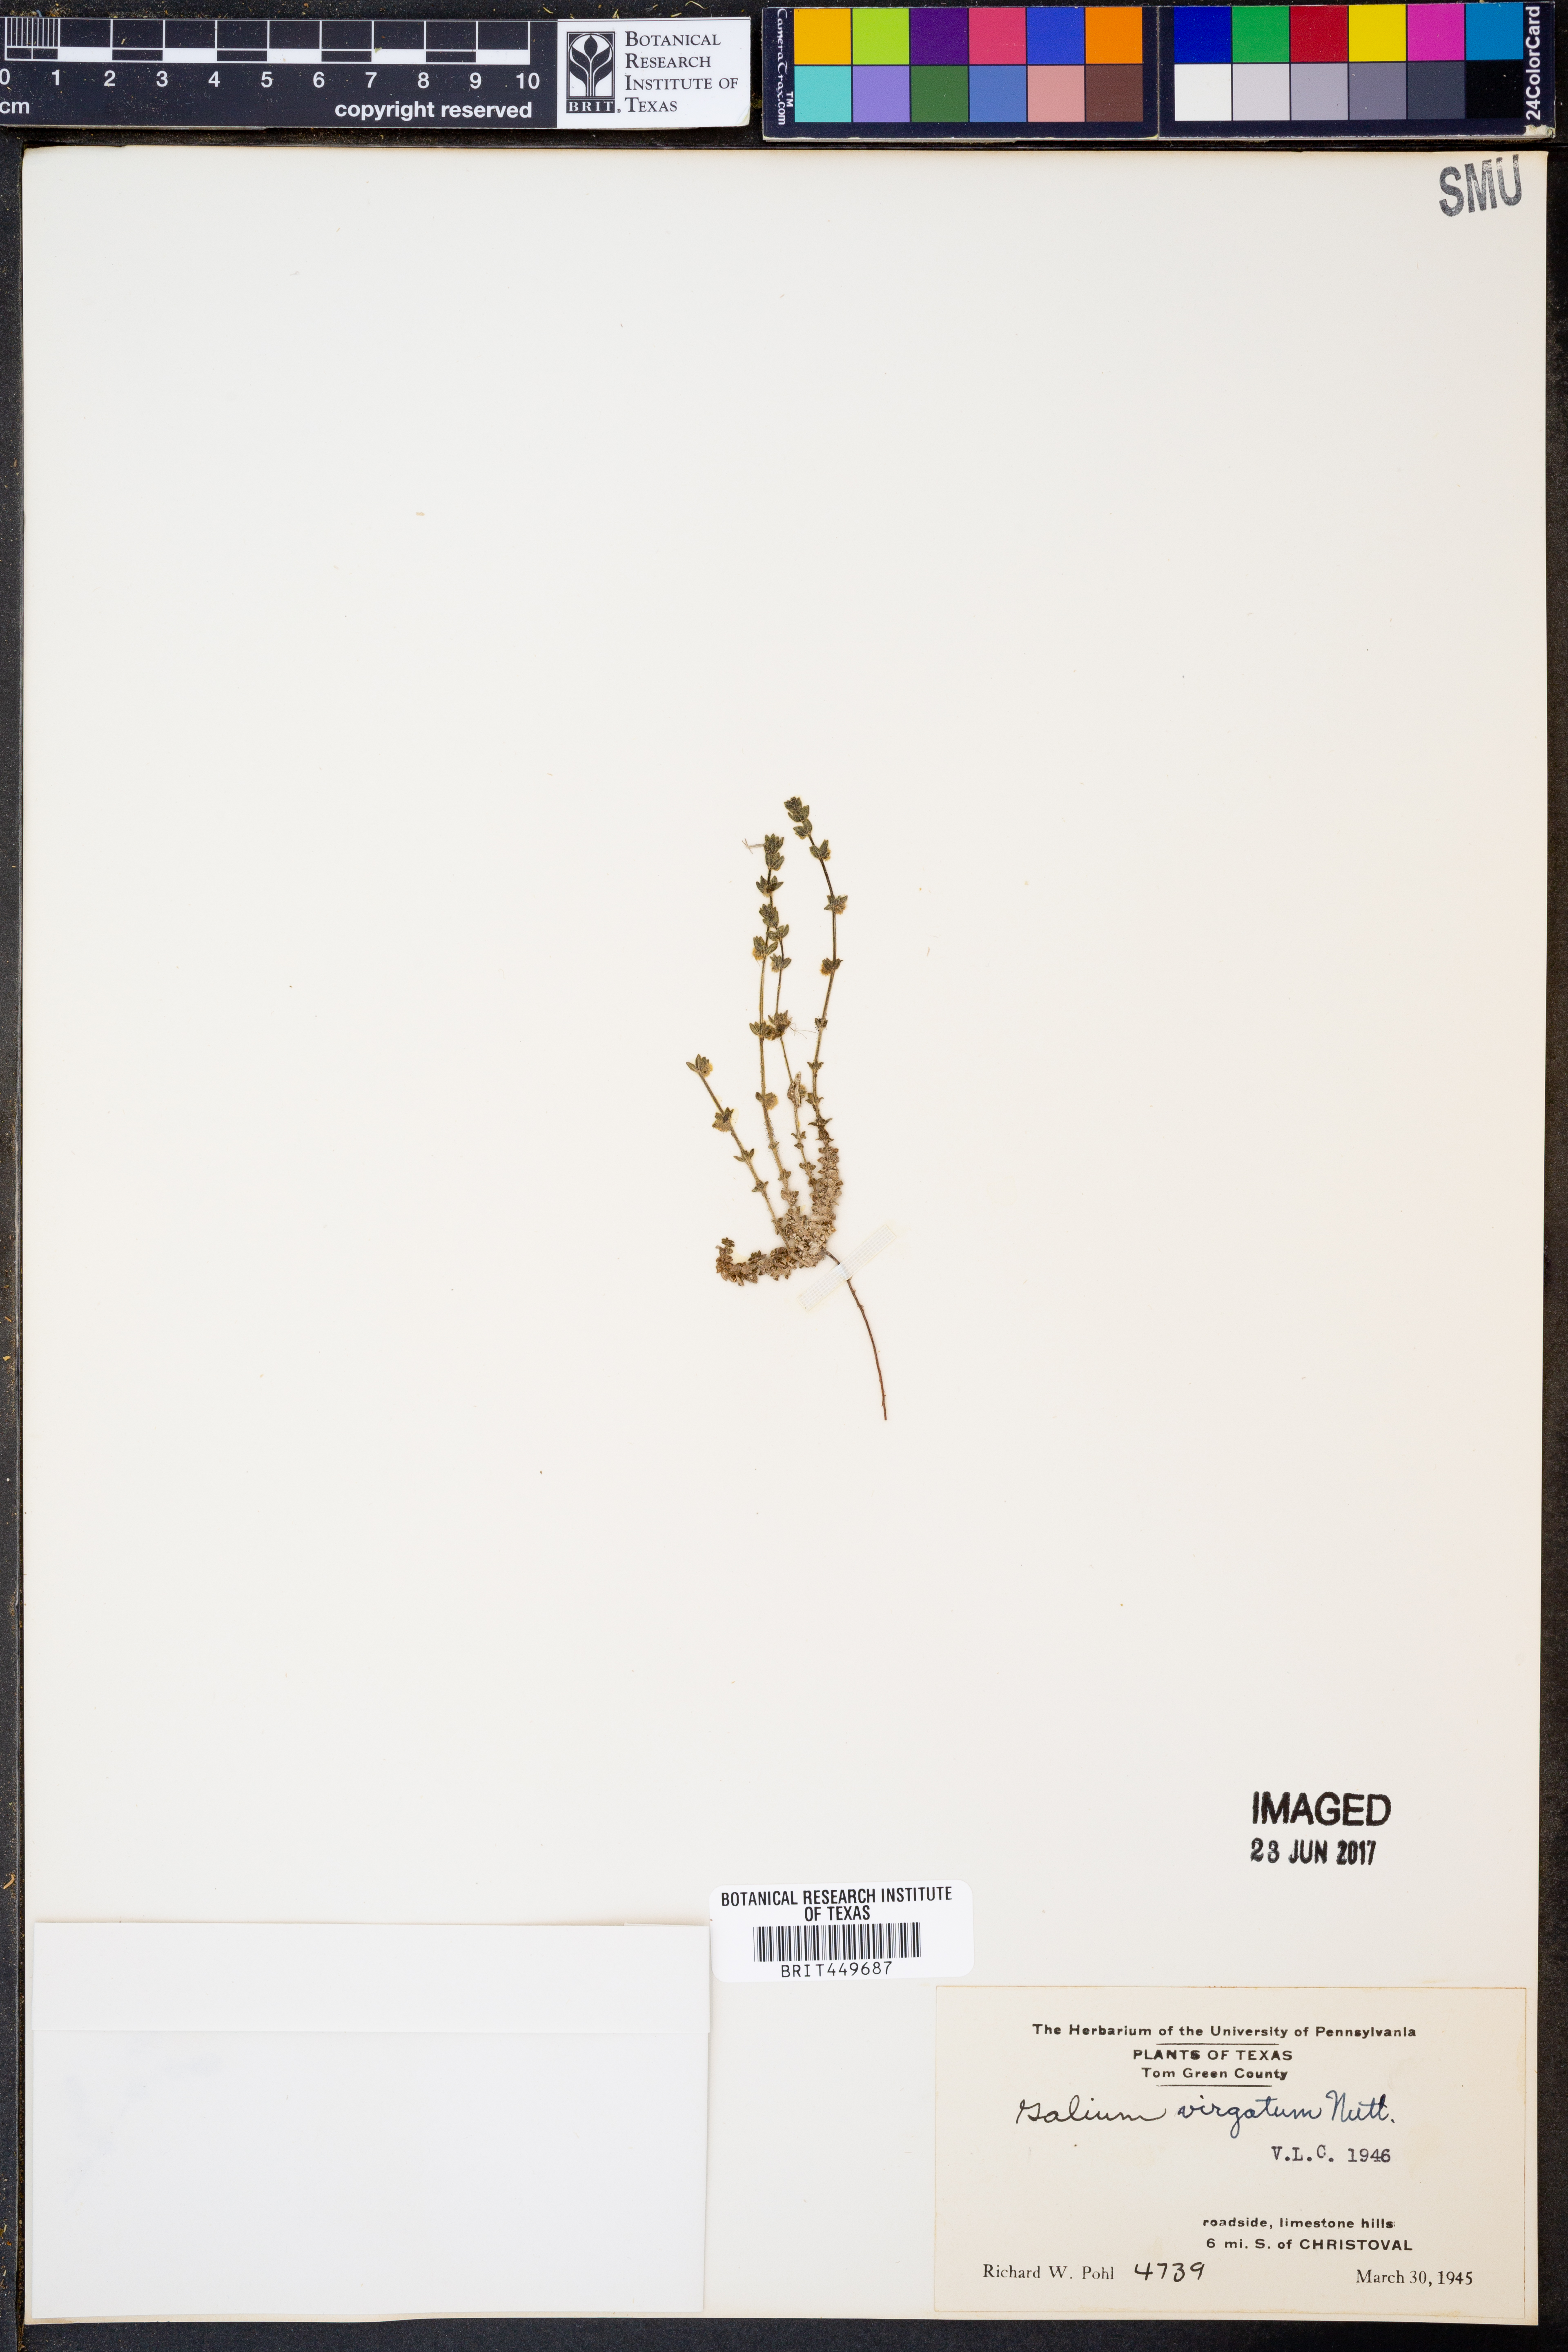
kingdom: Plantae
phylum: Tracheophyta
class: Magnoliopsida
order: Gentianales
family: Rubiaceae
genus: Galium
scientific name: Galium virgatum
